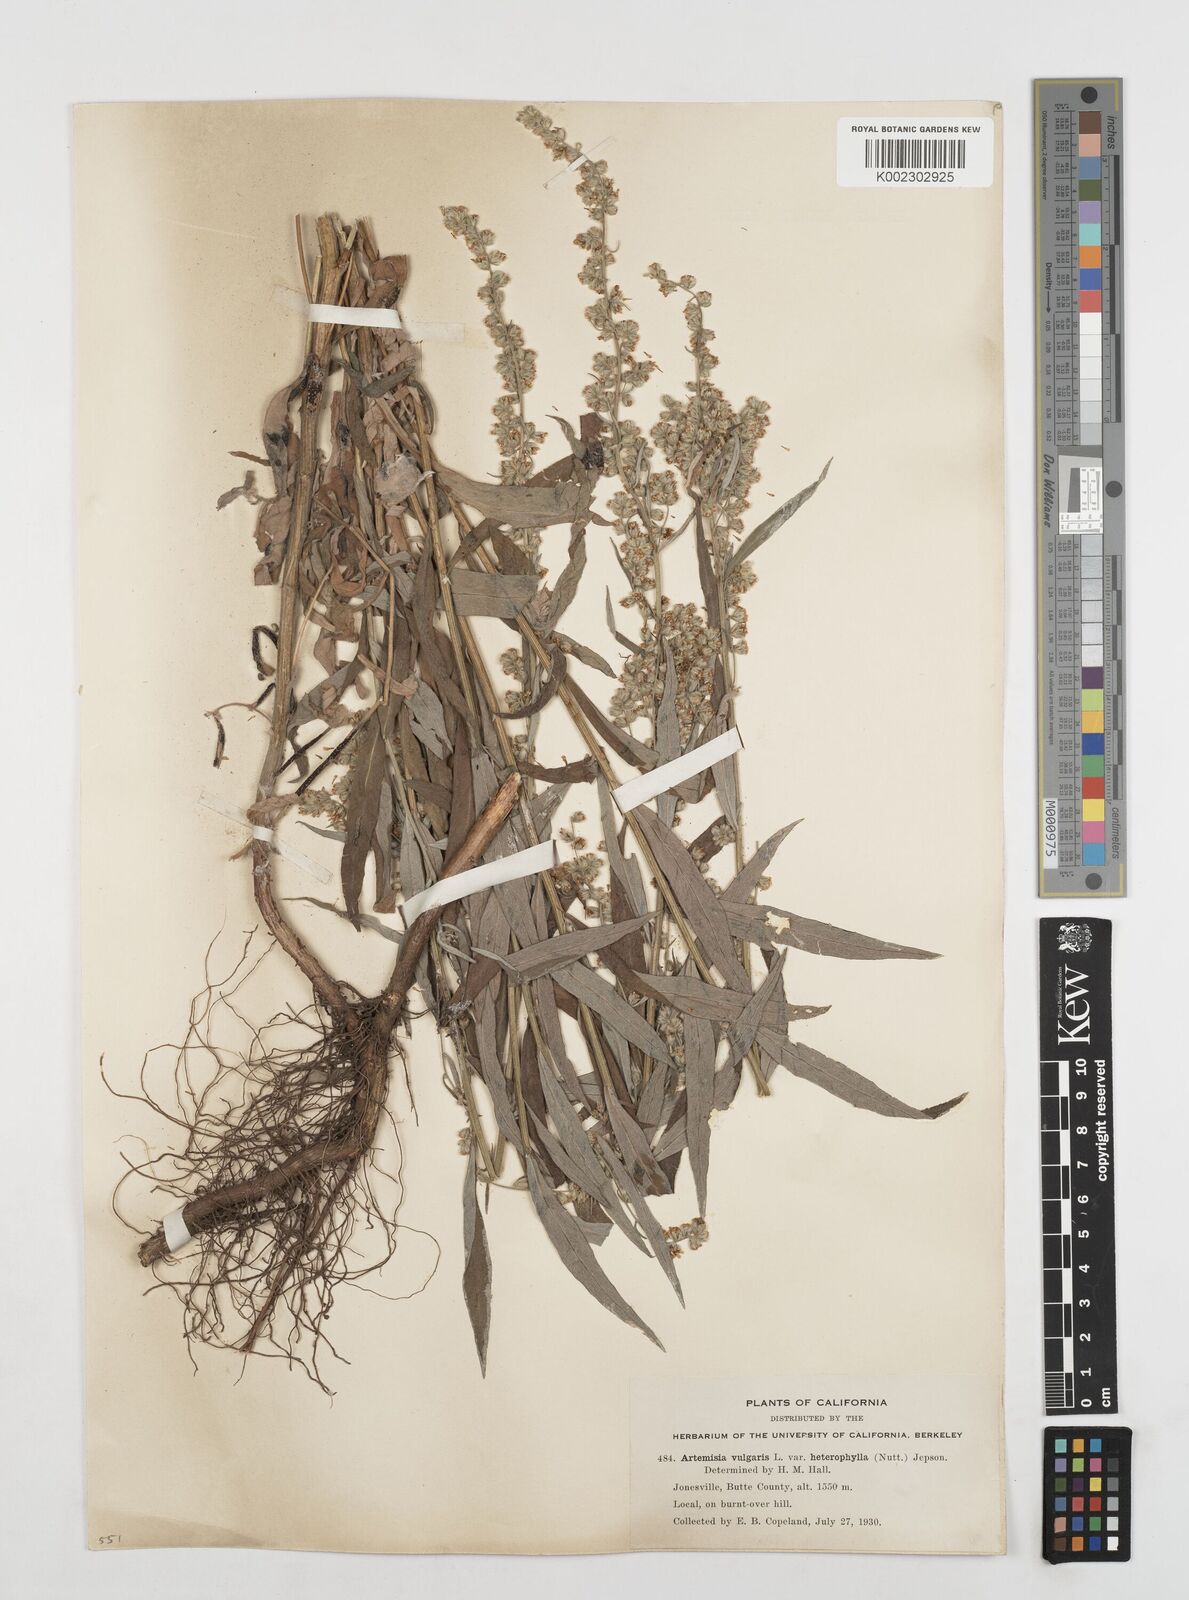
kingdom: Plantae
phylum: Tracheophyta
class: Magnoliopsida
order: Asterales
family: Asteraceae
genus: Artemisia
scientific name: Artemisia douglasiana
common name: Northwest mugwort
